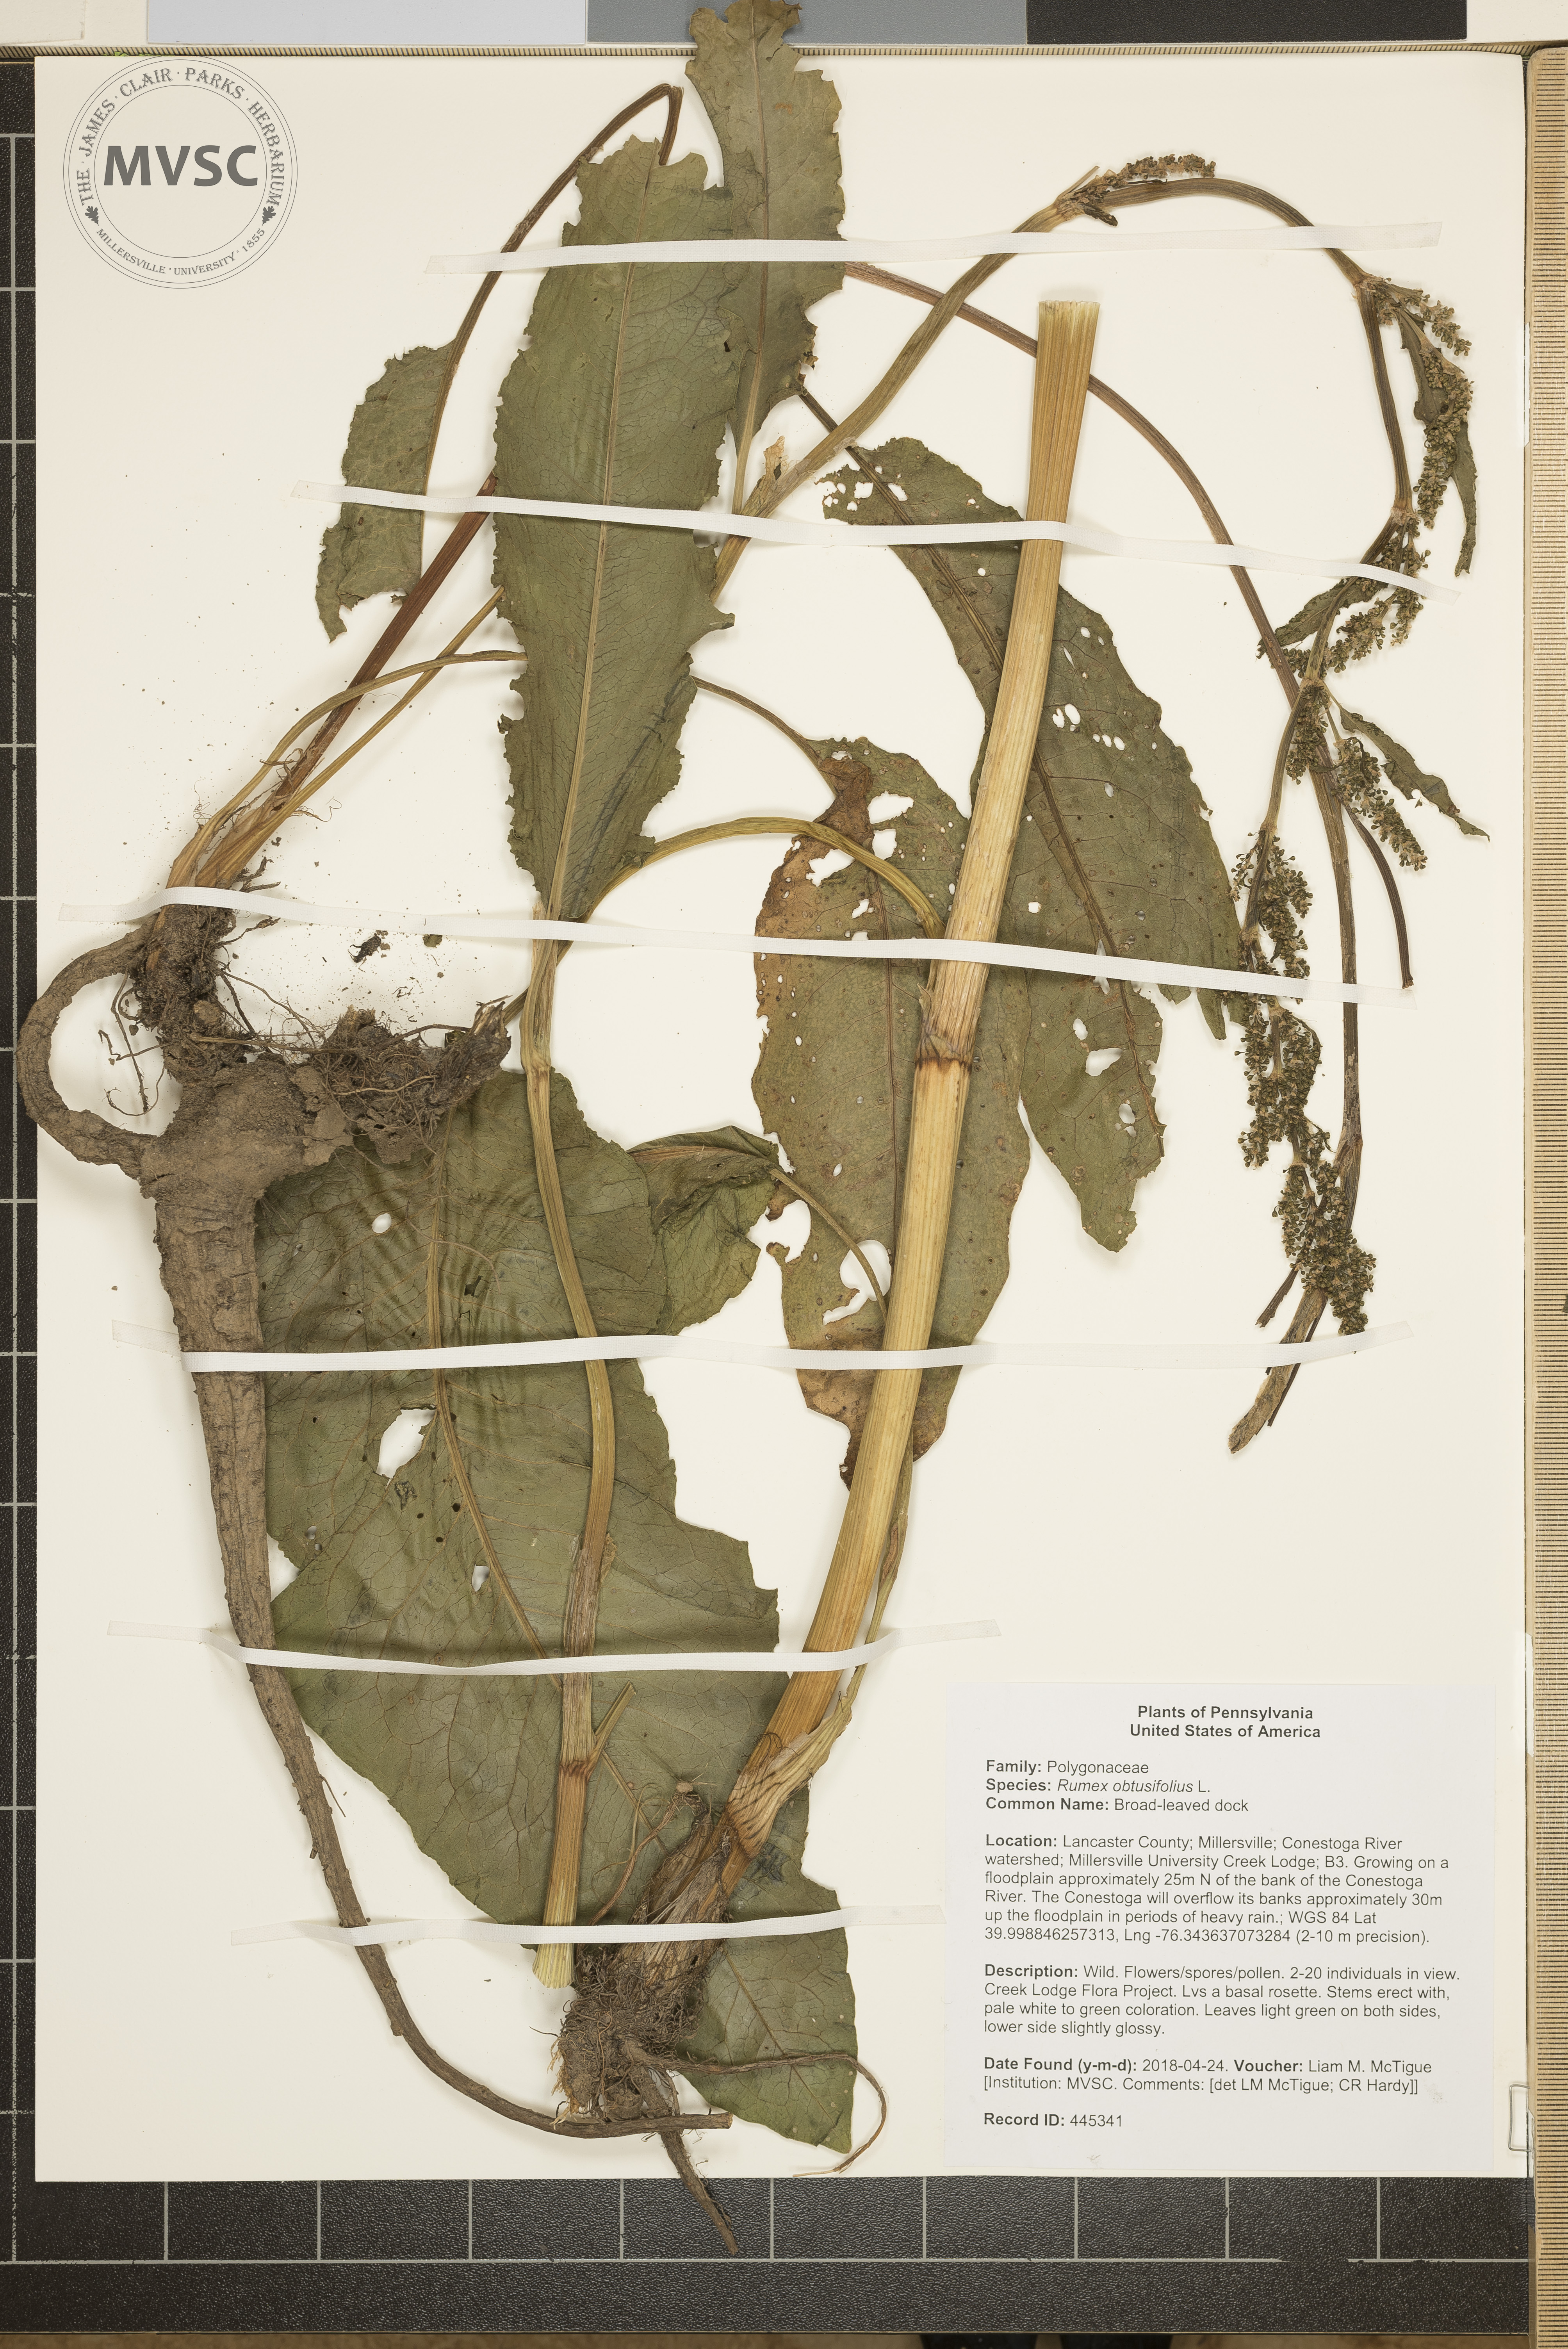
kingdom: Plantae
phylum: Tracheophyta
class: Magnoliopsida
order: Caryophyllales
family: Polygonaceae
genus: Rumex
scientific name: Rumex obtusifolius
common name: Broad-leaved dock
